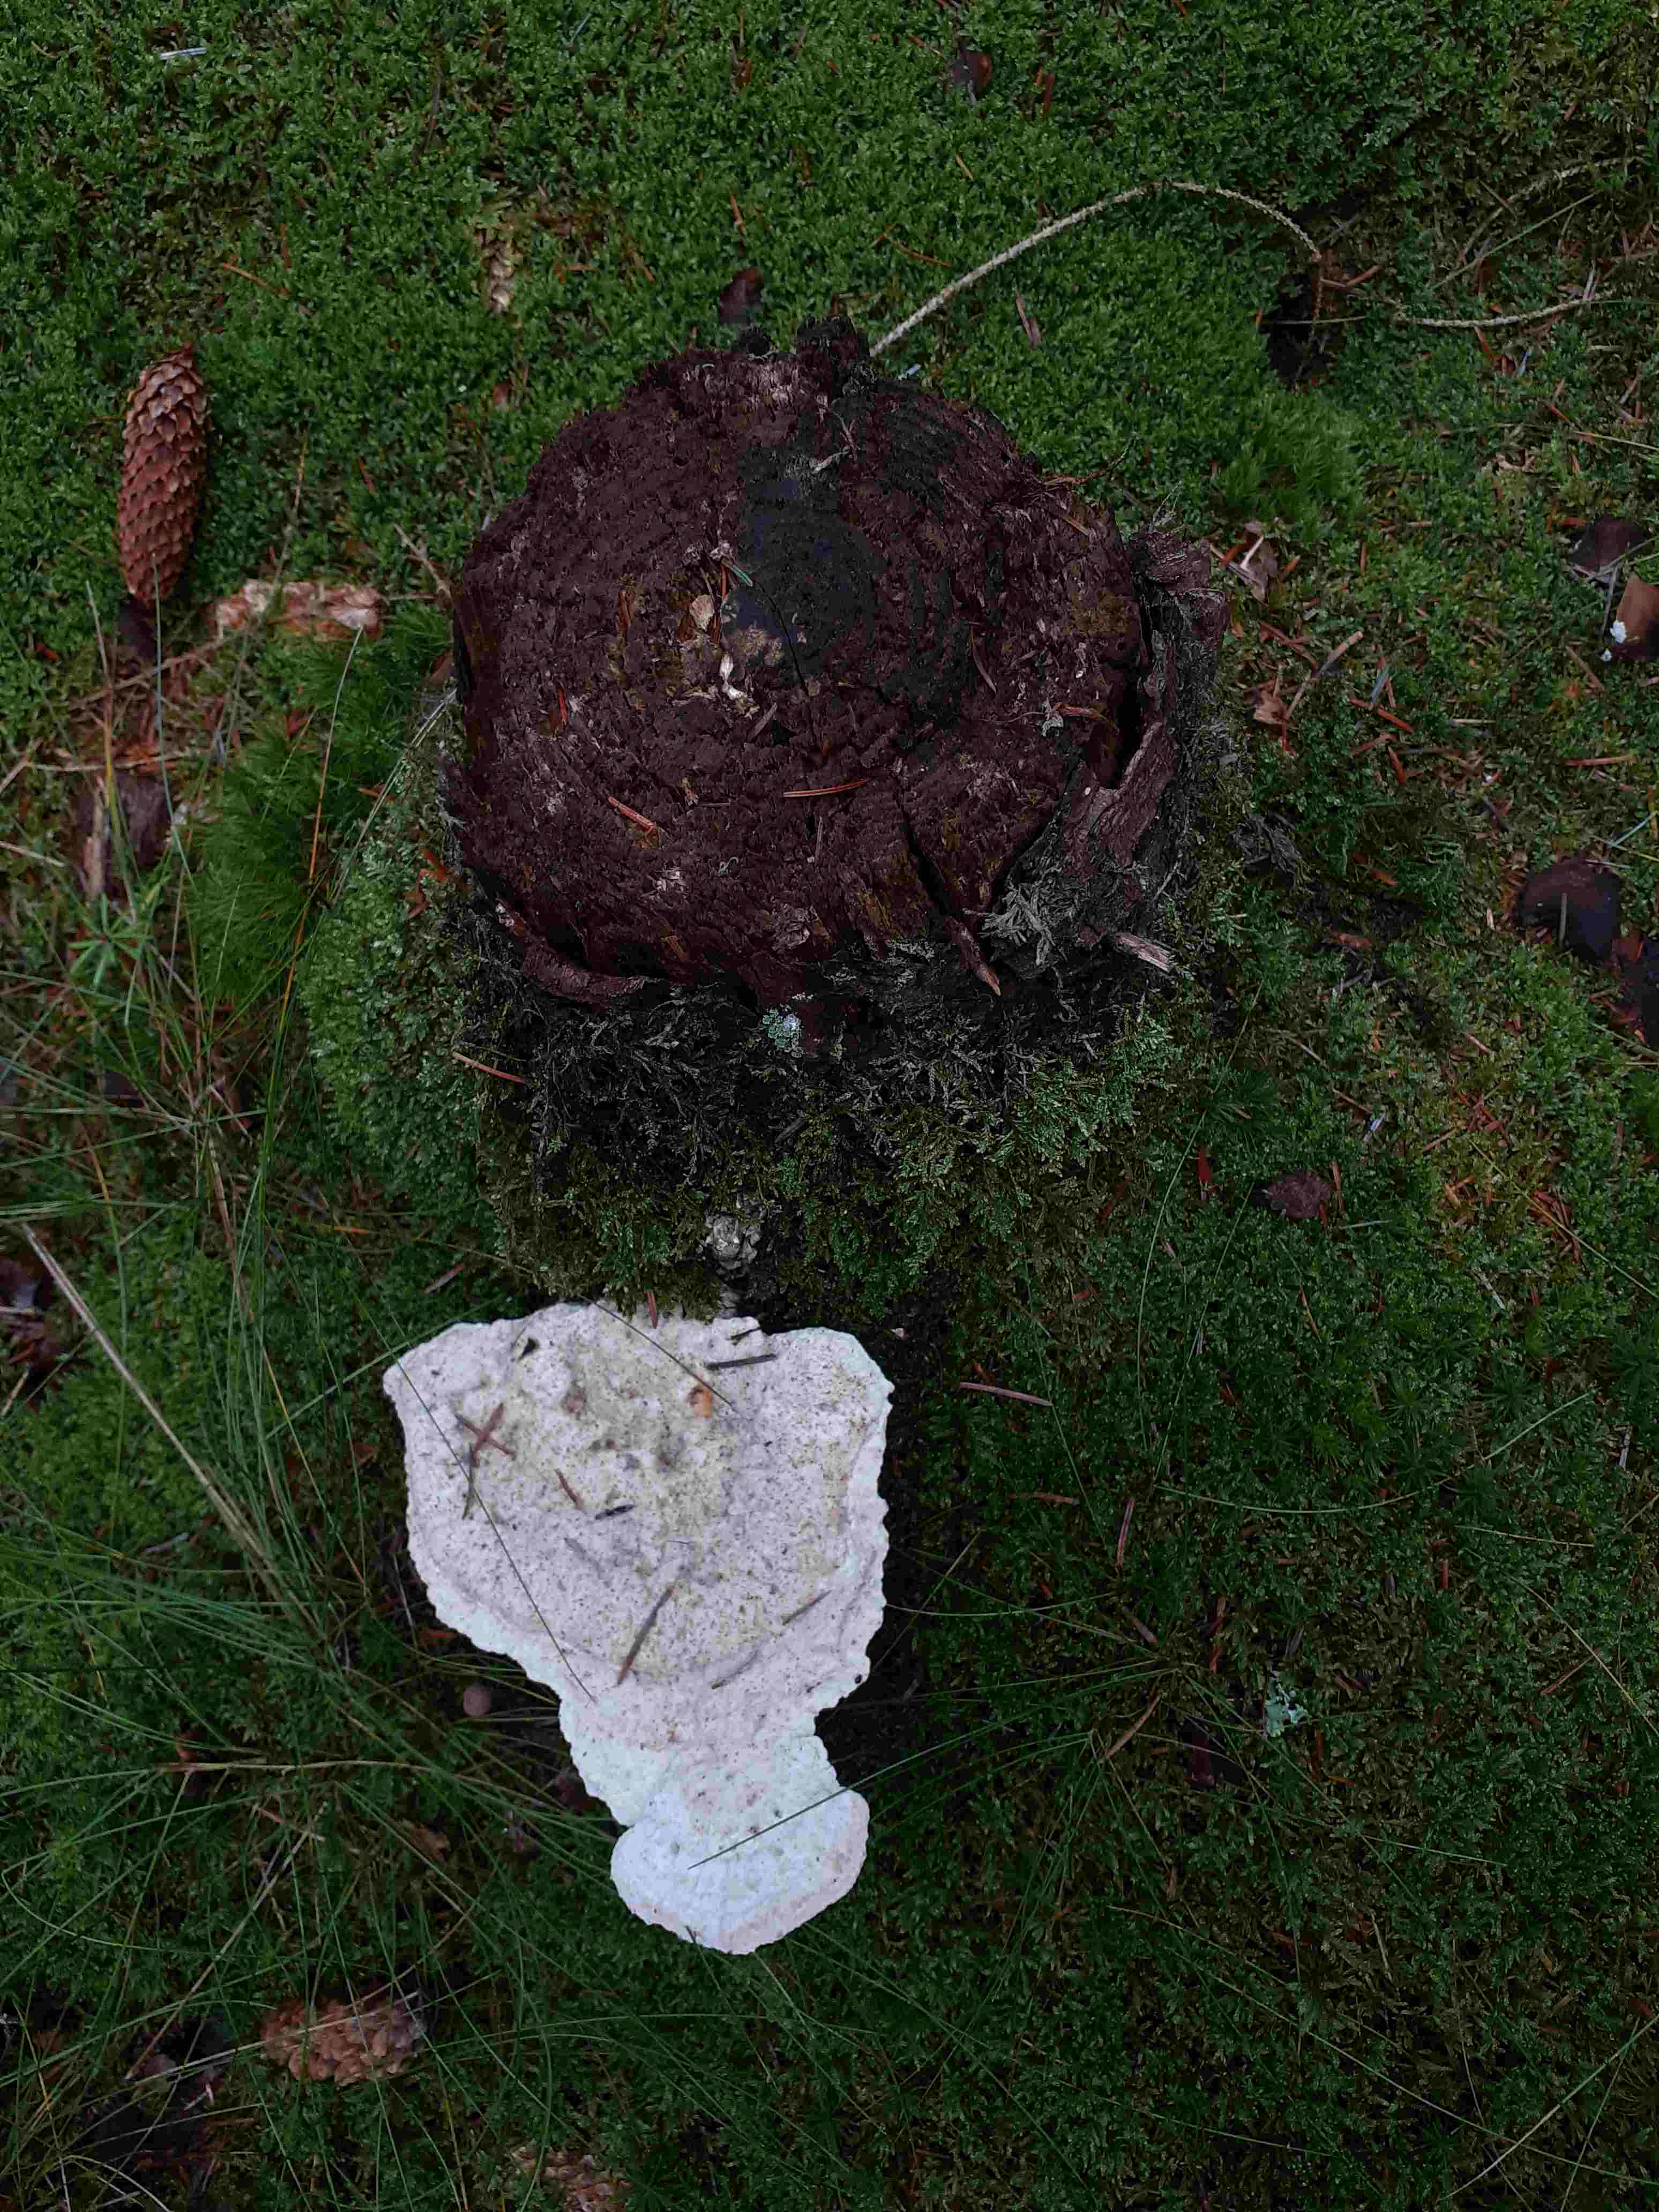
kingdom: Fungi
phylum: Basidiomycota
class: Agaricomycetes
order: Polyporales
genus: Calcipostia
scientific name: Calcipostia guttulata
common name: dråbe-kødporesvamp
